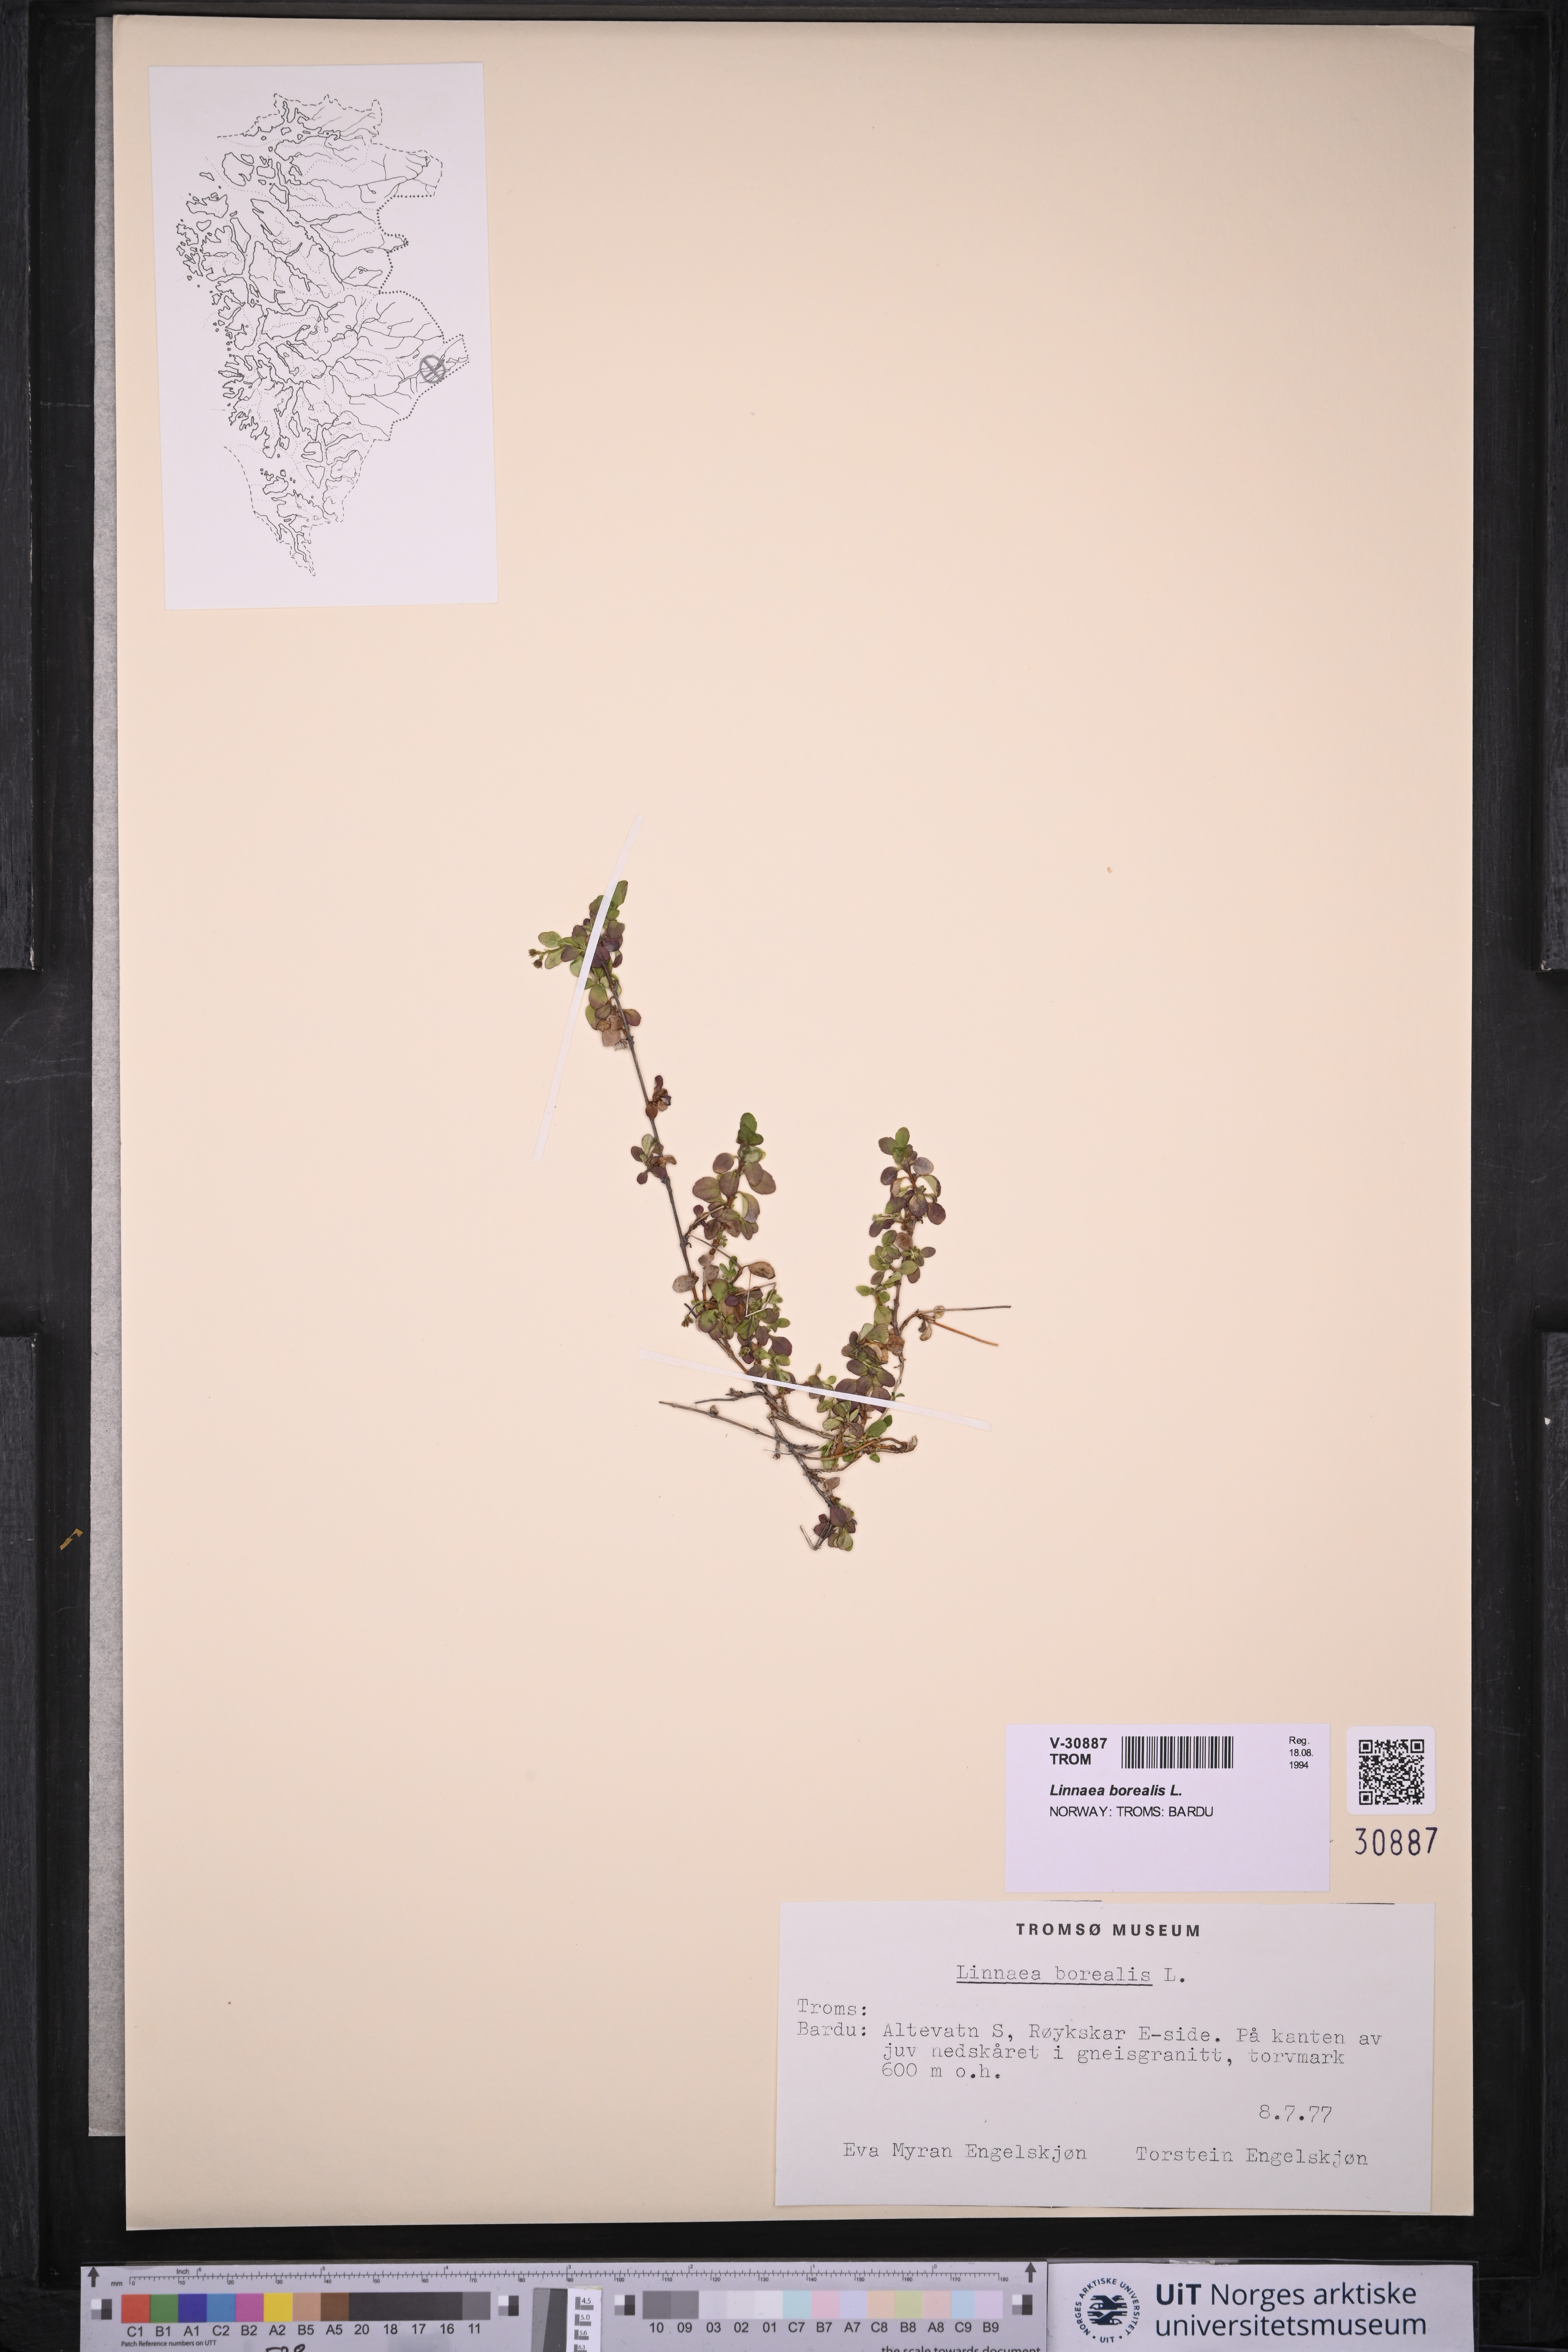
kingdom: Plantae
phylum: Tracheophyta
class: Magnoliopsida
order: Dipsacales
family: Caprifoliaceae
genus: Linnaea
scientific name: Linnaea borealis
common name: Twinflower
